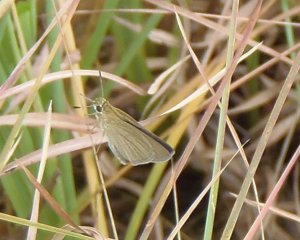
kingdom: Animalia
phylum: Arthropoda
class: Insecta
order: Lepidoptera
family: Hesperiidae
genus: Nastra
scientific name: Nastra lherminier
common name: Swarthy Skipper
